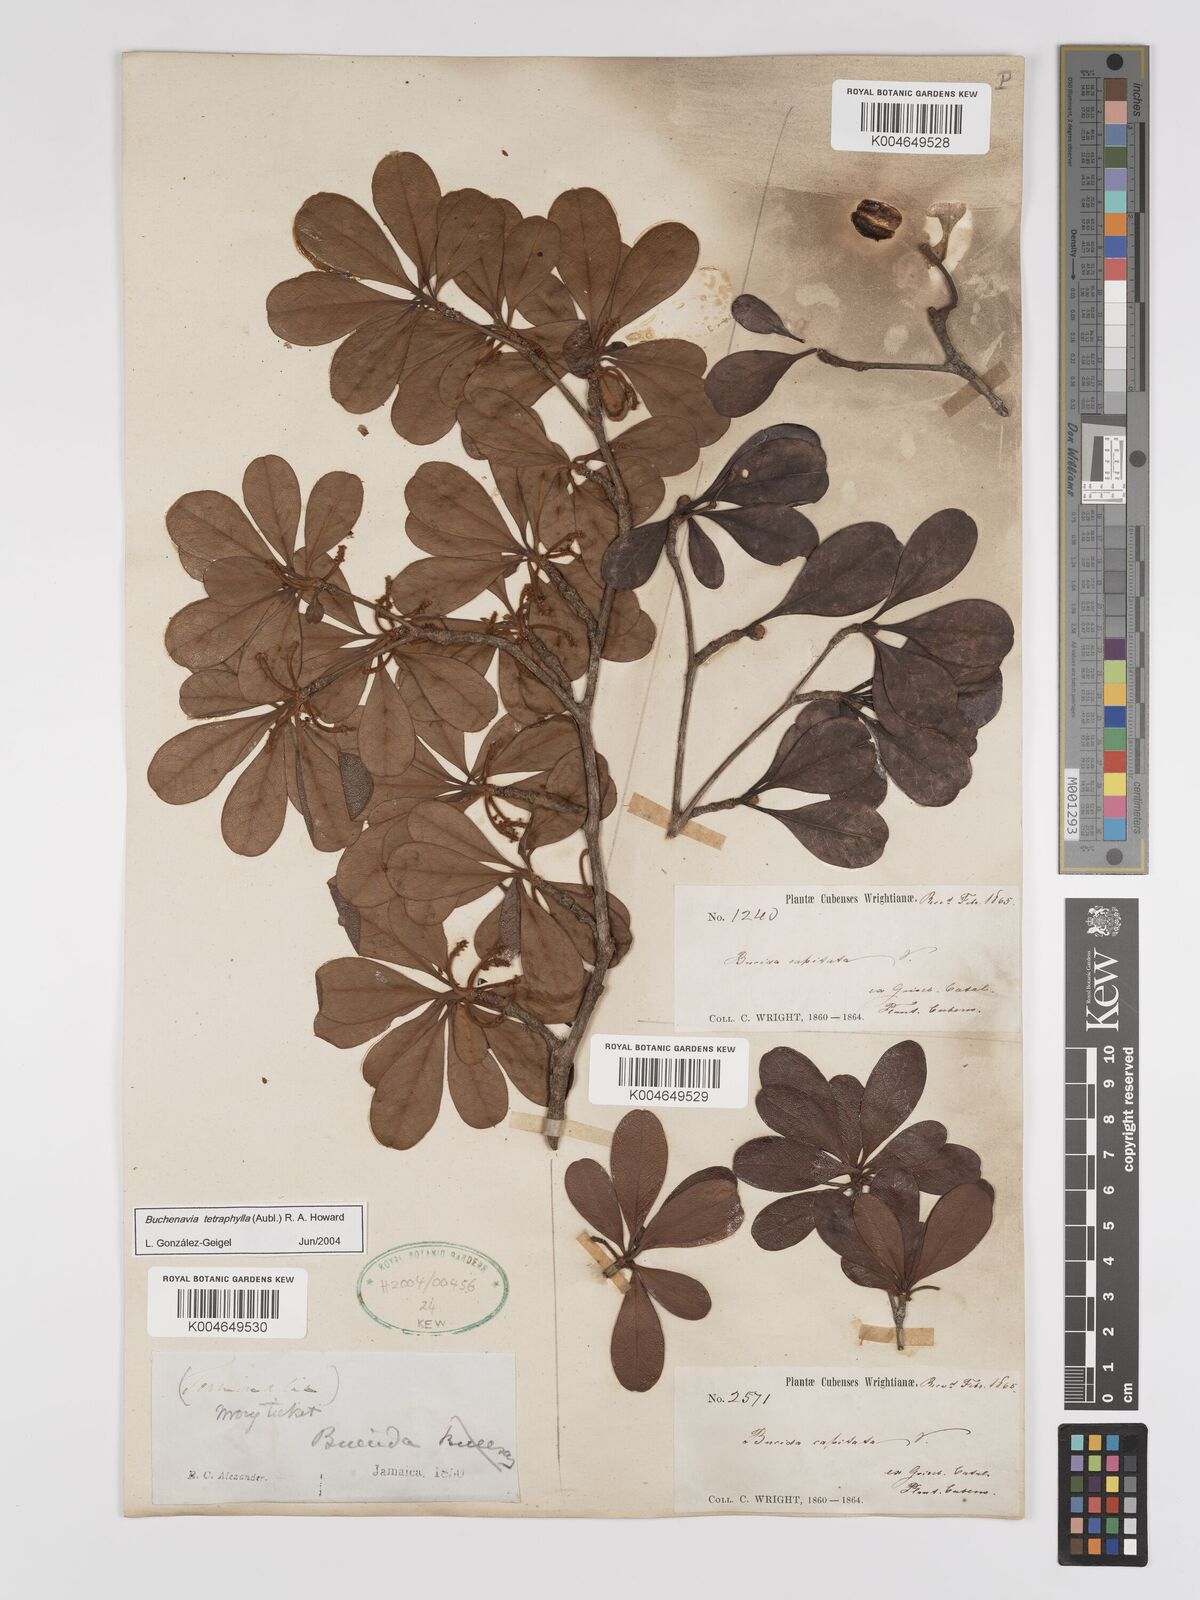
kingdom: Plantae
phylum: Tracheophyta
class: Magnoliopsida
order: Myrtales
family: Combretaceae
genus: Terminalia
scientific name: Terminalia tetraphylla
